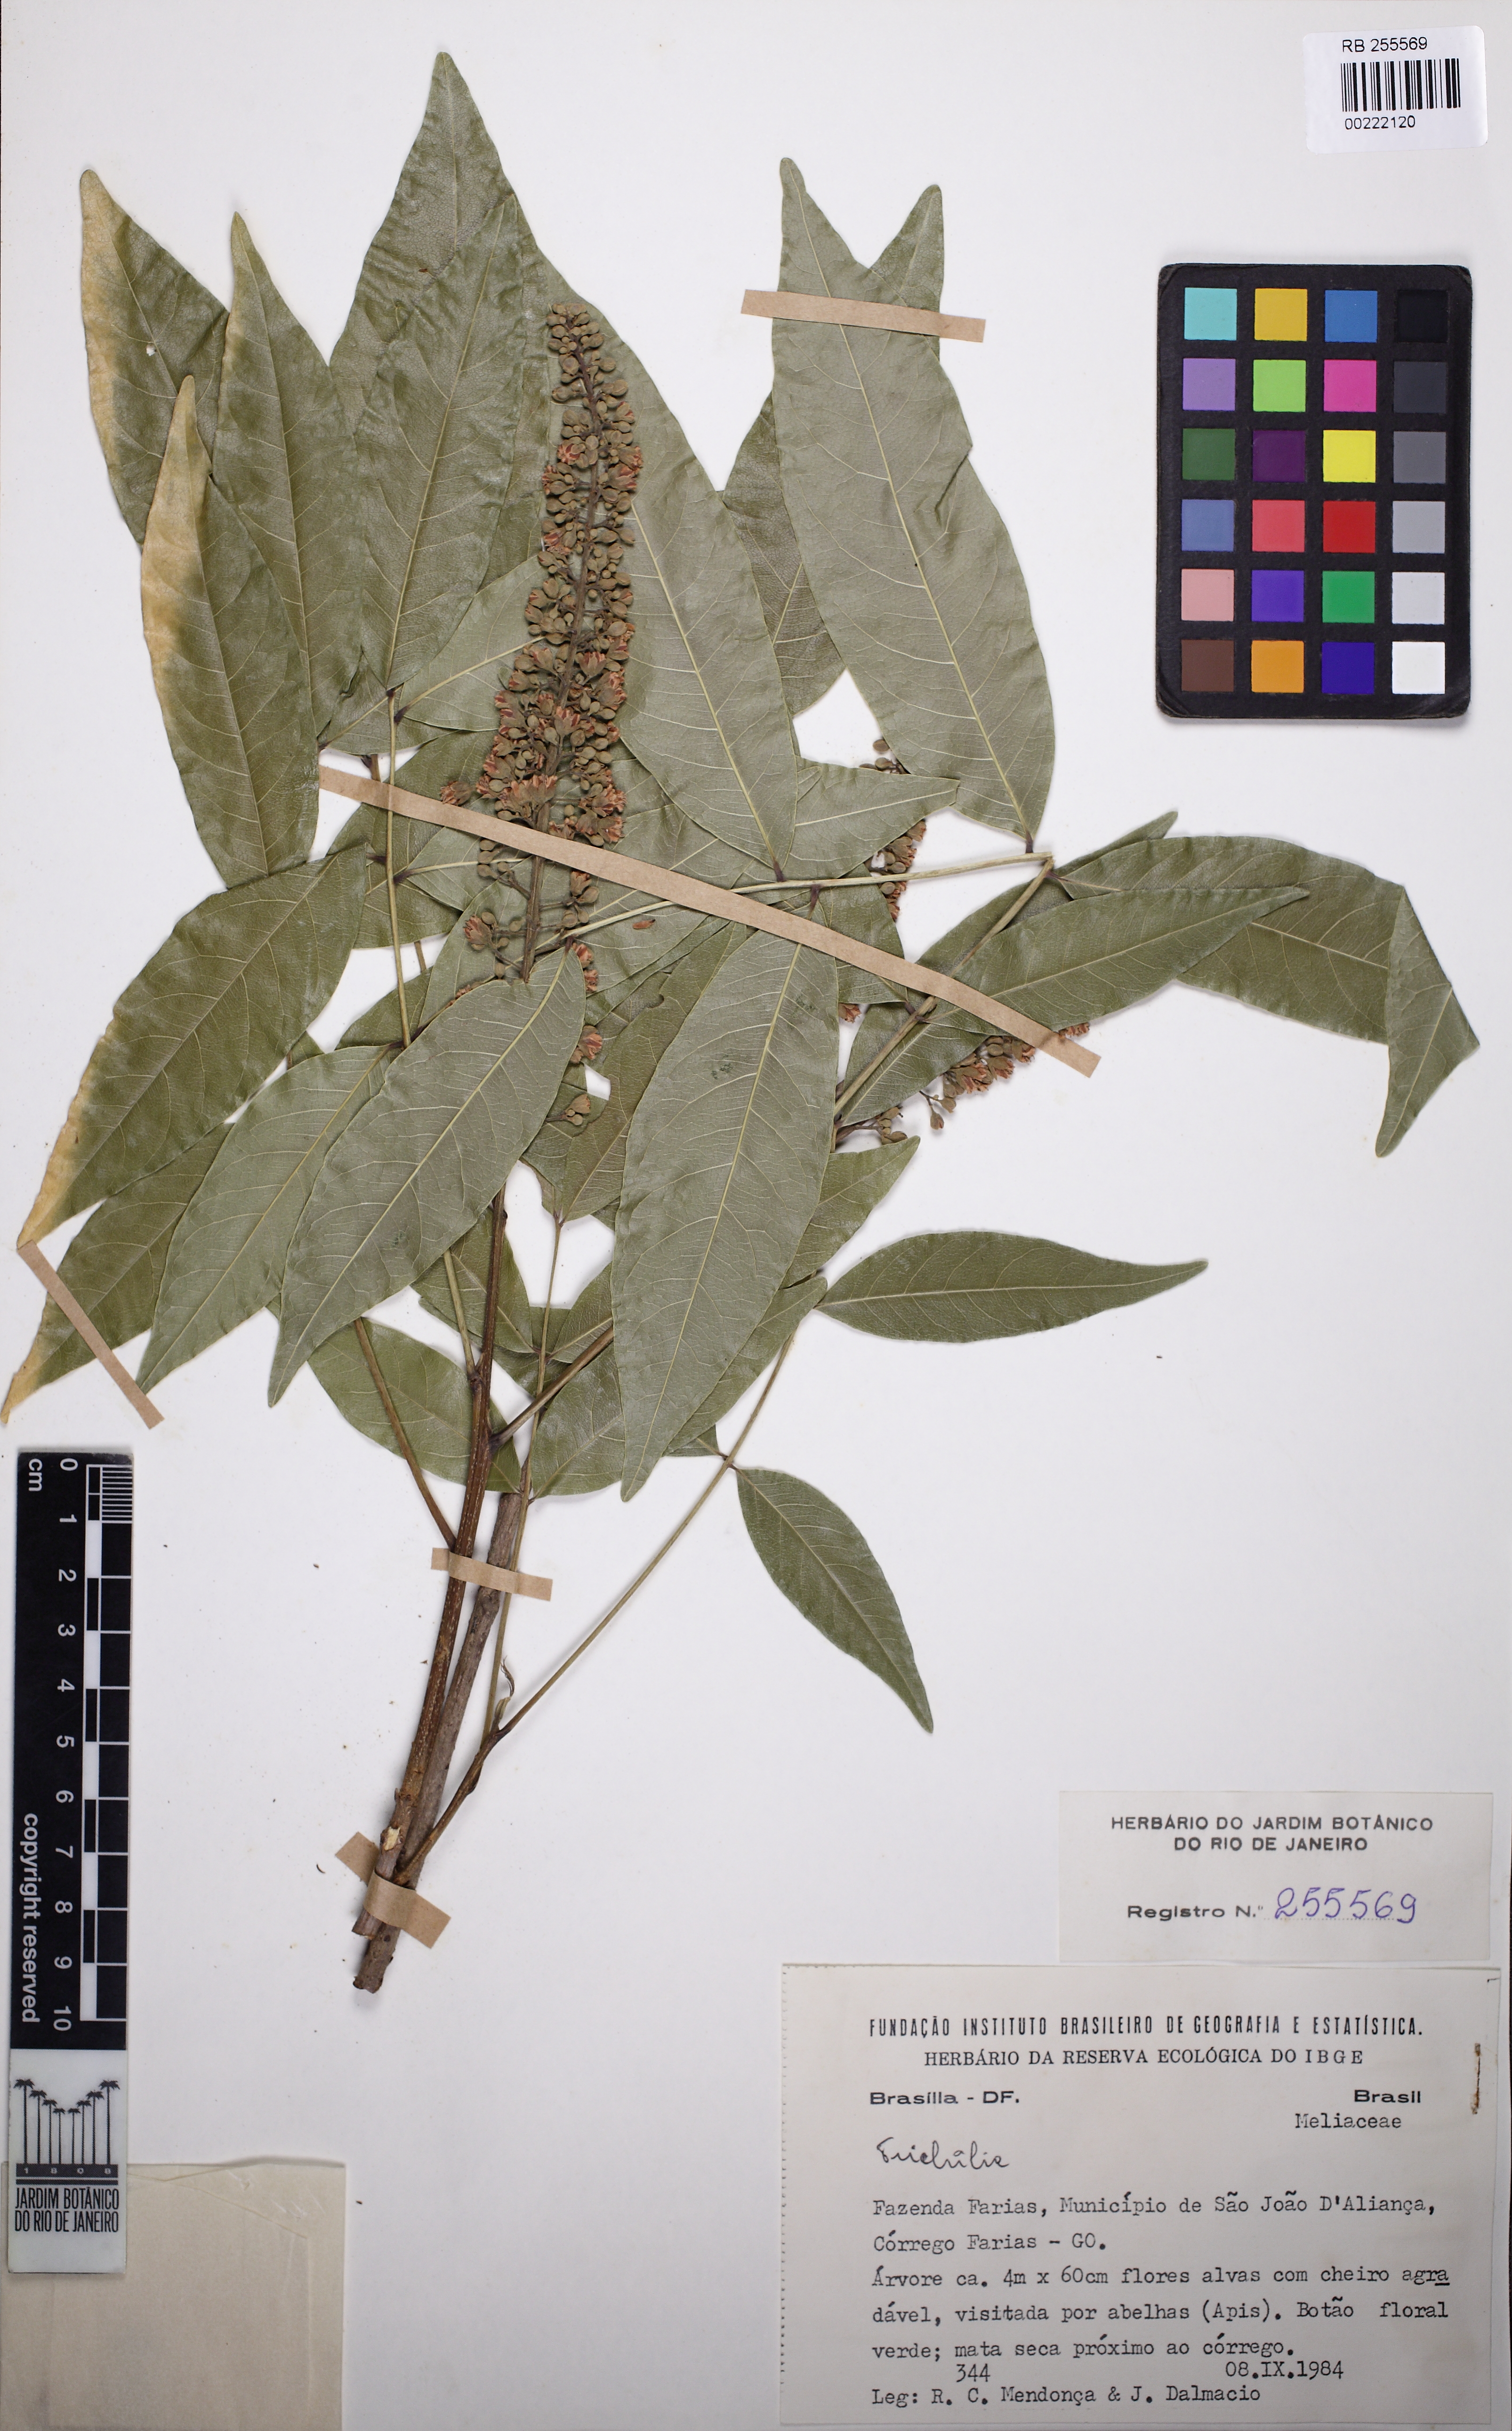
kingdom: Plantae
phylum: Tracheophyta
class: Magnoliopsida
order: Sapindales
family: Sapindaceae
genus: Talisia
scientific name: Talisia esculenta
